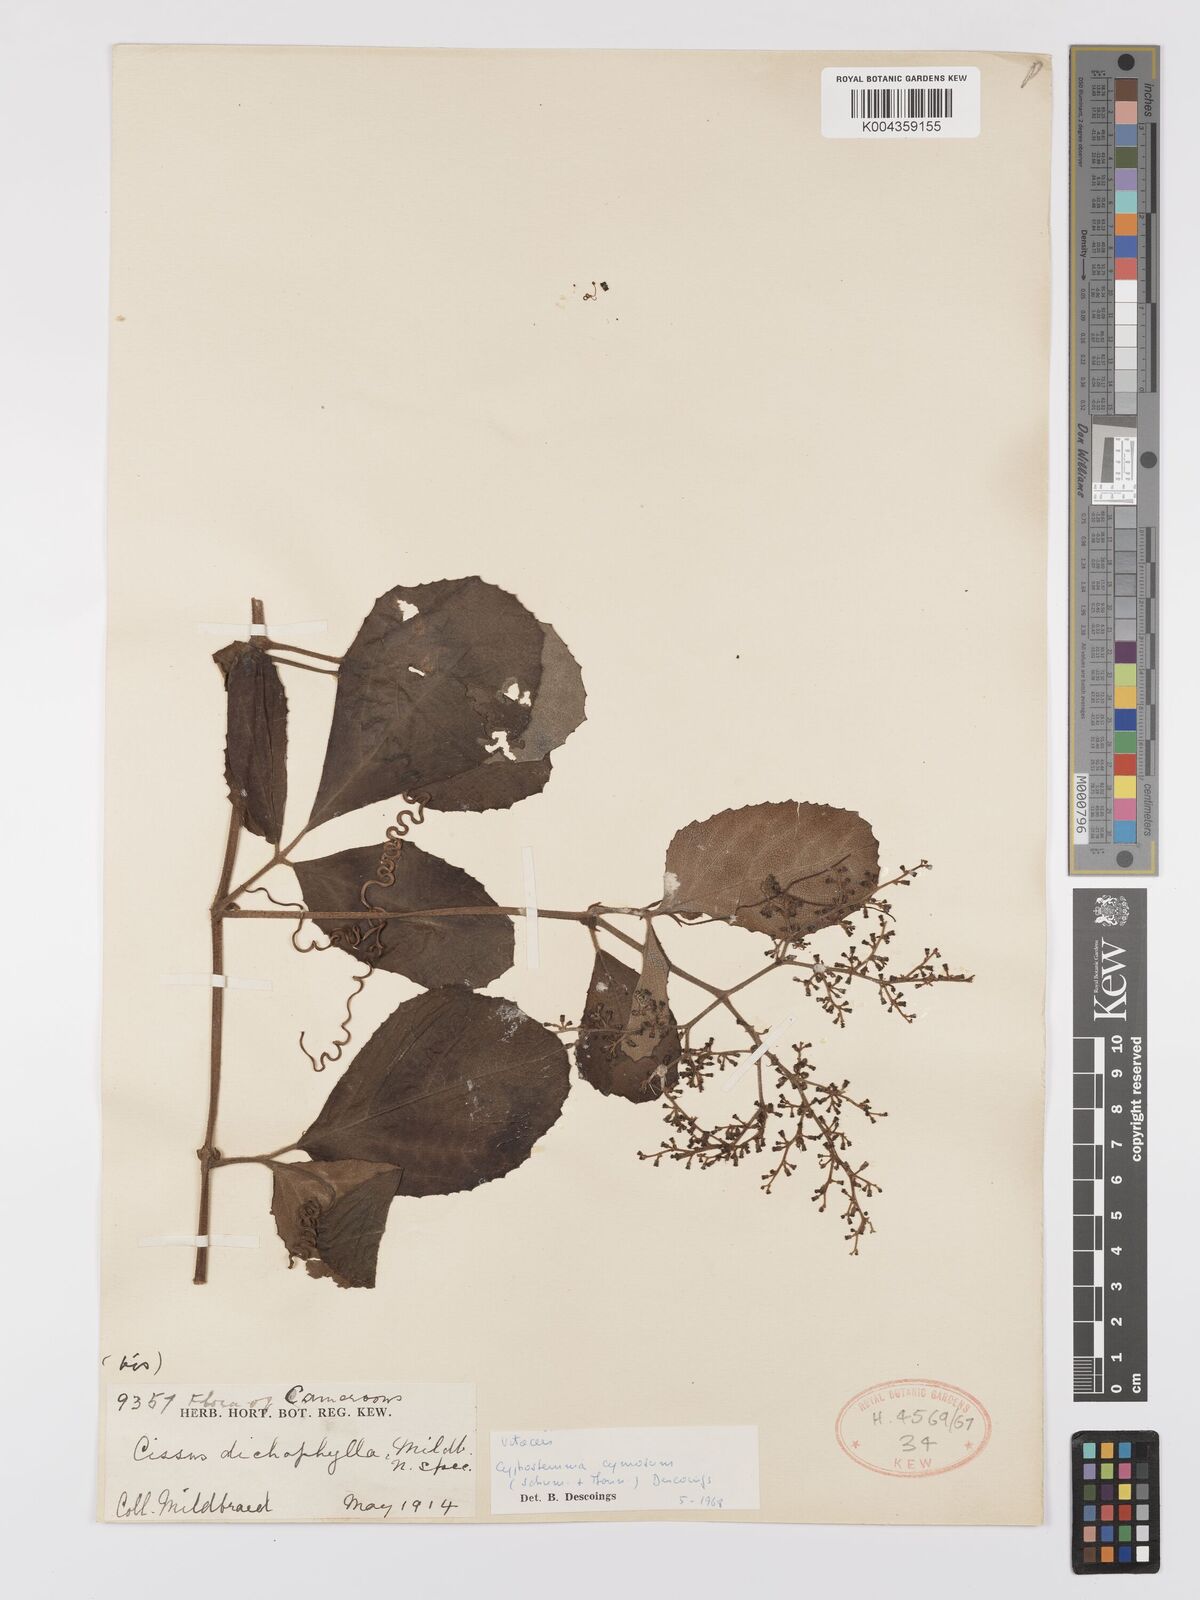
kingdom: Plantae
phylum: Tracheophyta
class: Magnoliopsida
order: Vitales
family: Vitaceae
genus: Cyphostemma
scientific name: Cyphostemma cymosum
